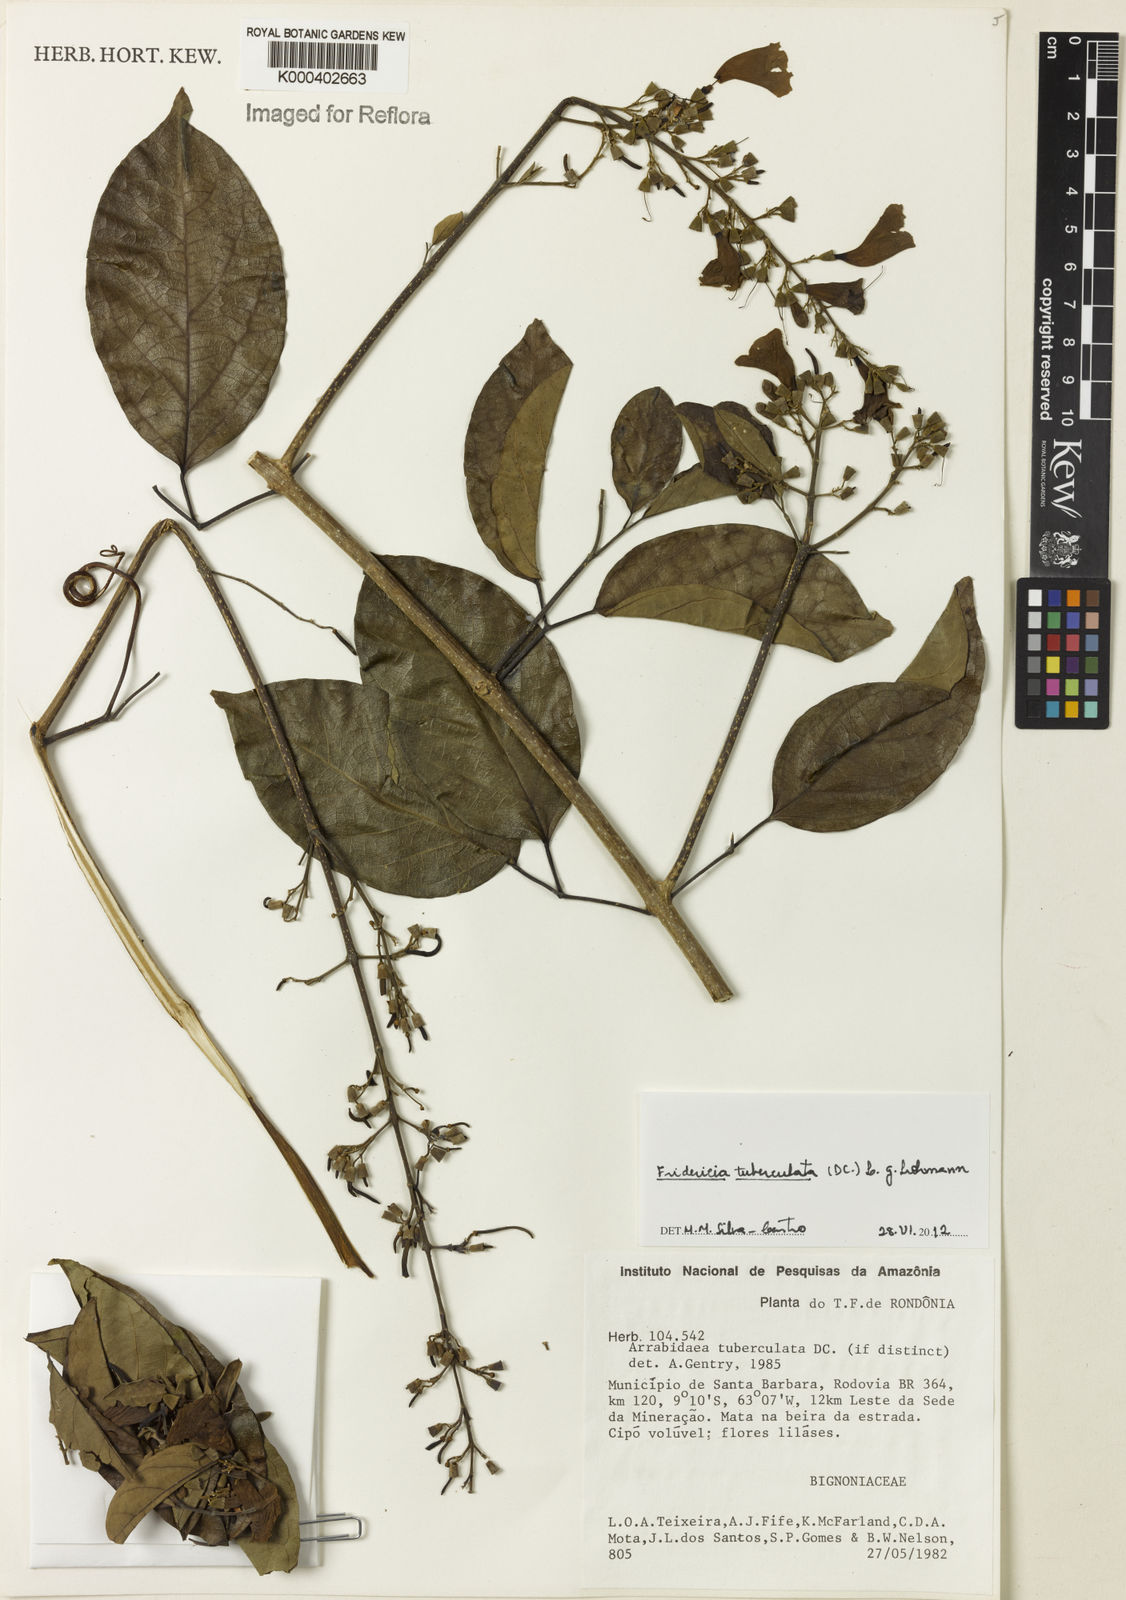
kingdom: Plantae
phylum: Tracheophyta
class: Magnoliopsida
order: Lamiales
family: Bignoniaceae
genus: Fridericia
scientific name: Fridericia tuberculata
